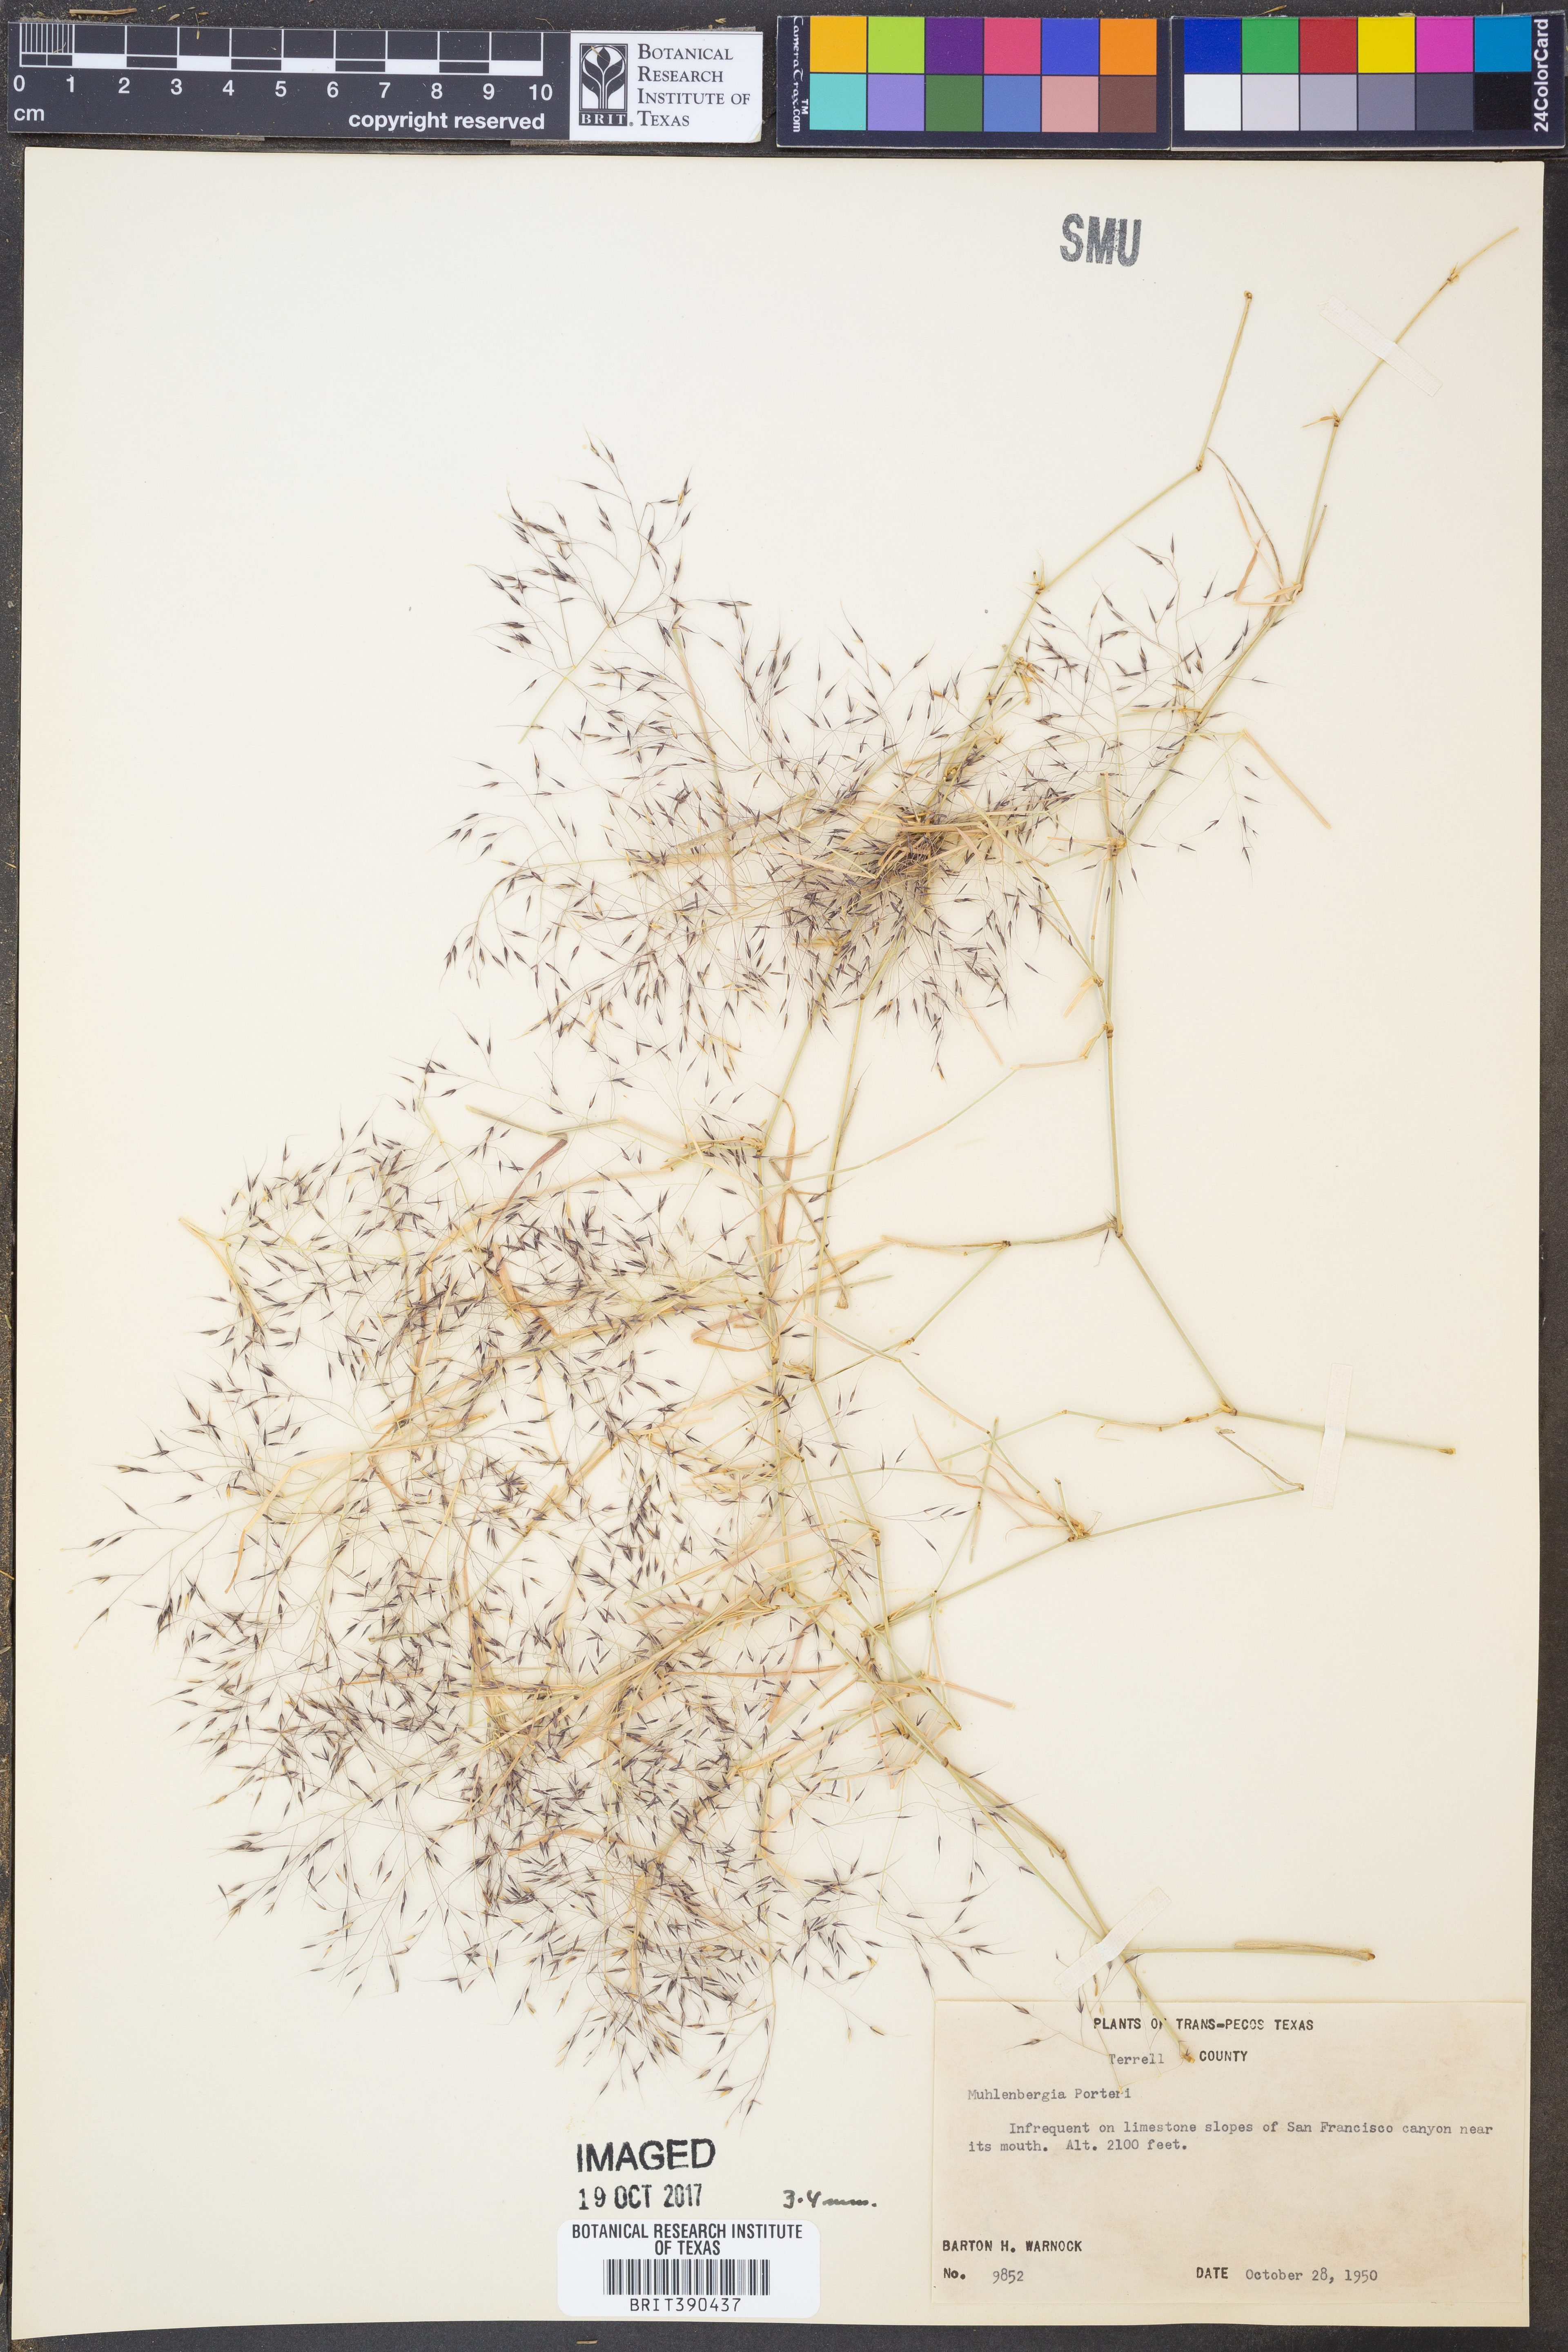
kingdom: Plantae
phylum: Tracheophyta
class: Liliopsida
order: Poales
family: Poaceae
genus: Muhlenbergia
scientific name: Muhlenbergia porteri
